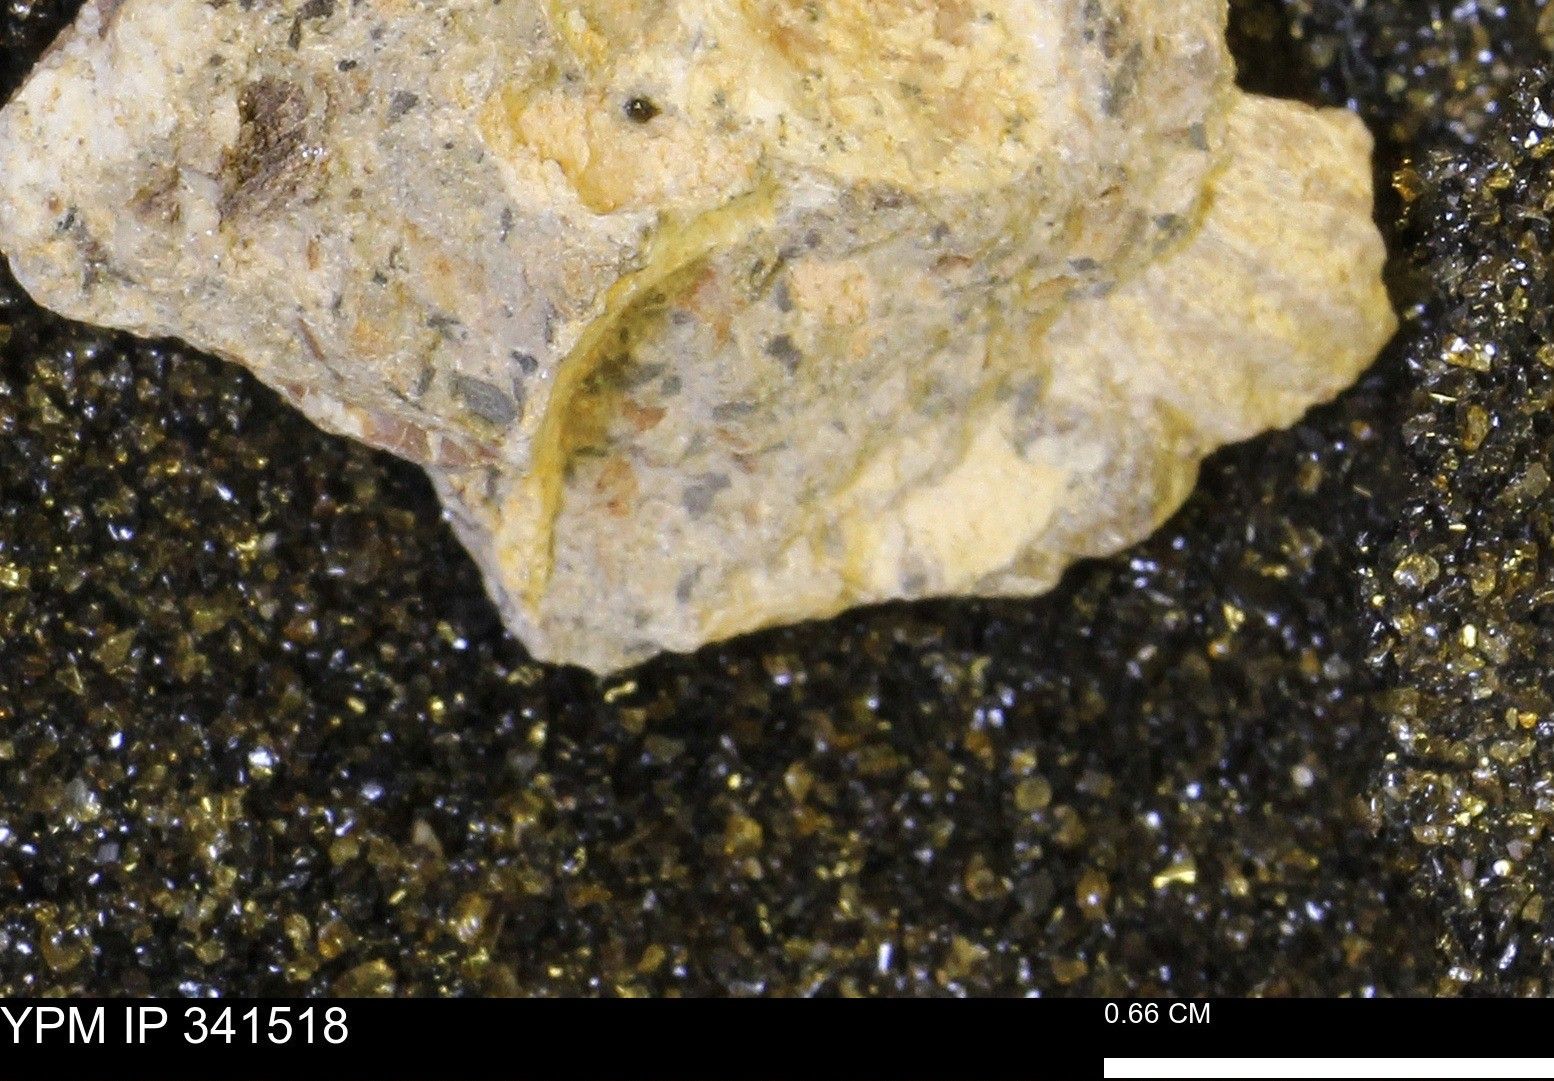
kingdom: Animalia
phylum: Mollusca
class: Cephalopoda
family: Scaphitidae
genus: Scaphites
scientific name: Scaphites
